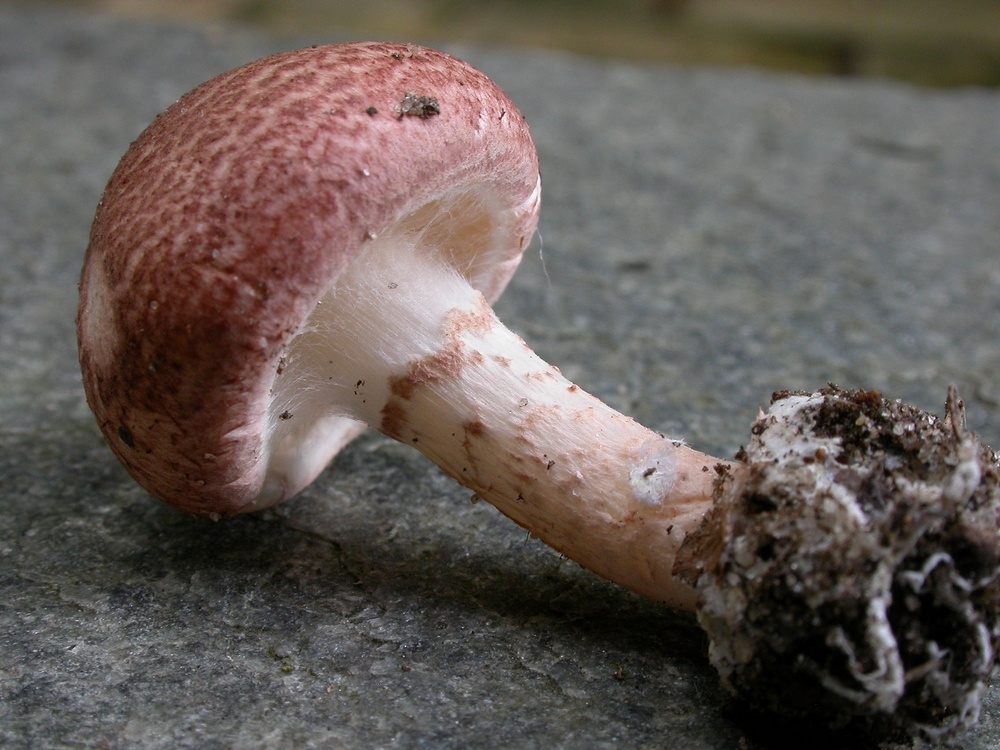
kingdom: Fungi
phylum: Basidiomycota
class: Agaricomycetes
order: Agaricales
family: Agaricaceae
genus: Lepiota
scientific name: Lepiota subincarnata
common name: kødfarvet parasolhat
